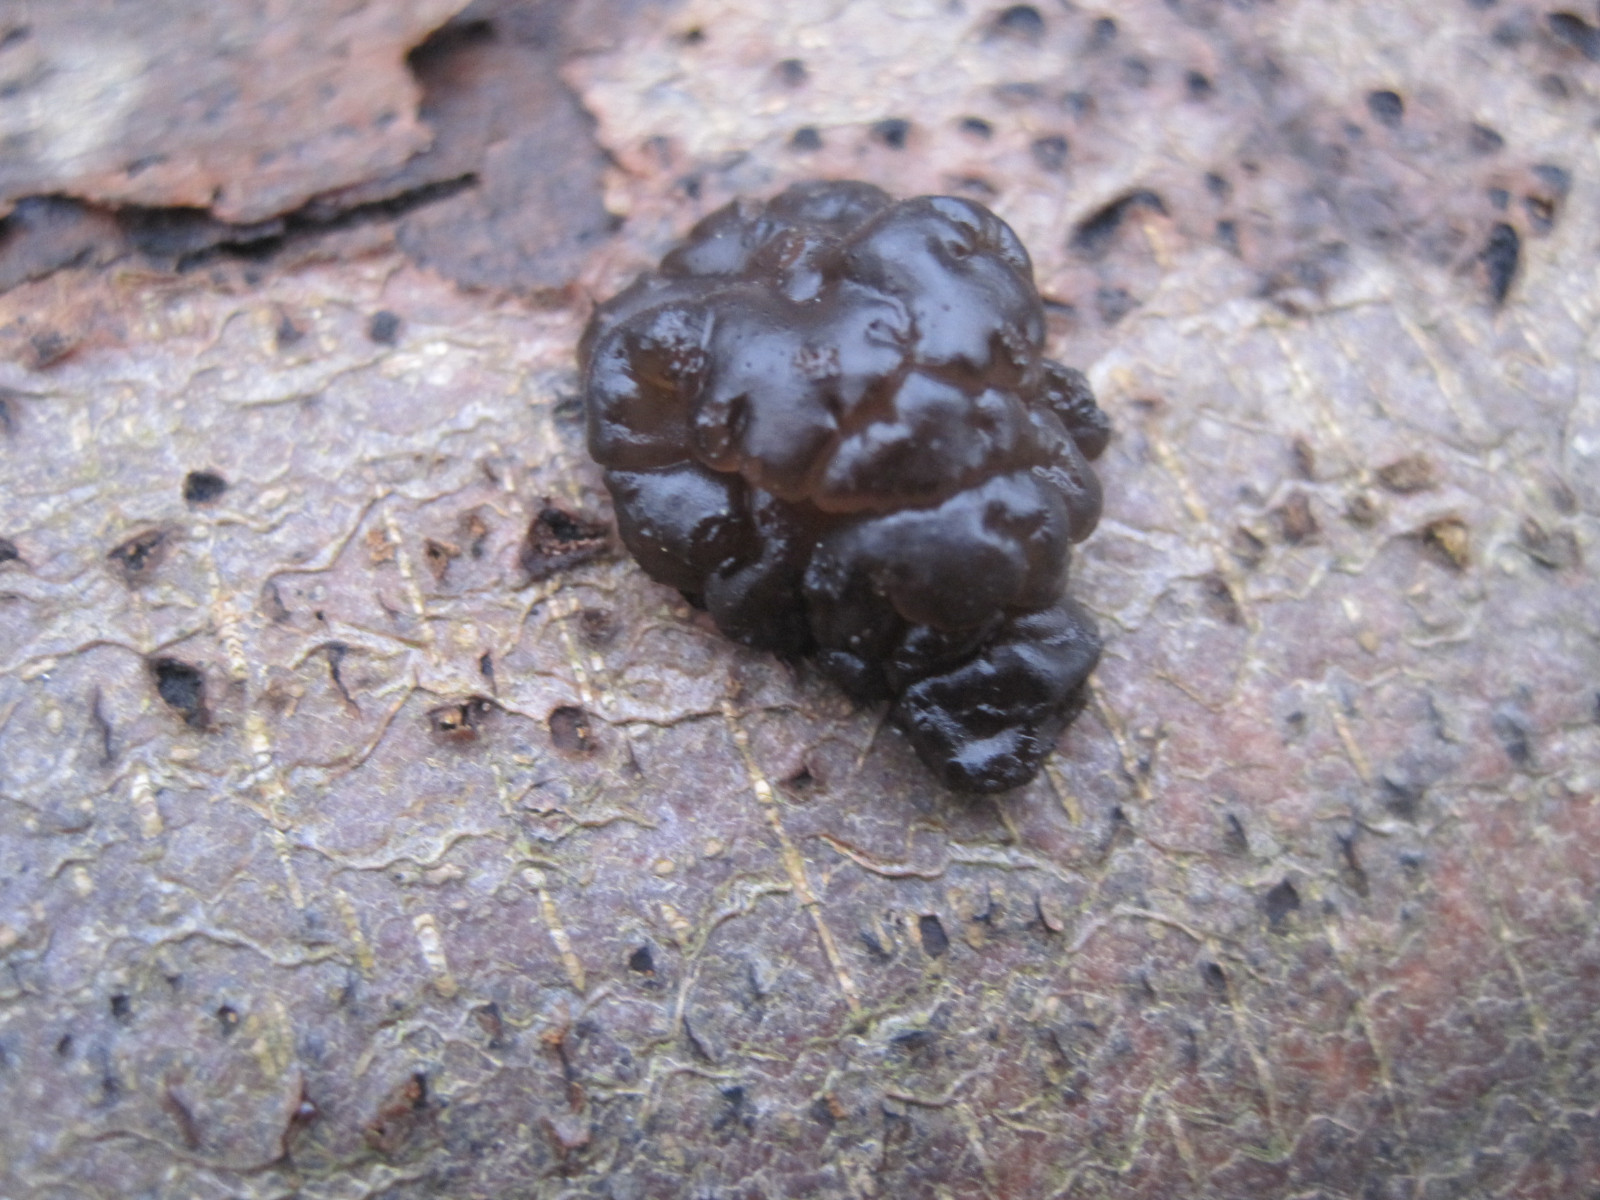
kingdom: Fungi
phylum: Basidiomycota
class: Agaricomycetes
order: Auriculariales
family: Auriculariaceae
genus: Exidia
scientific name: Exidia nigricans
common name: almindelig bævretop
